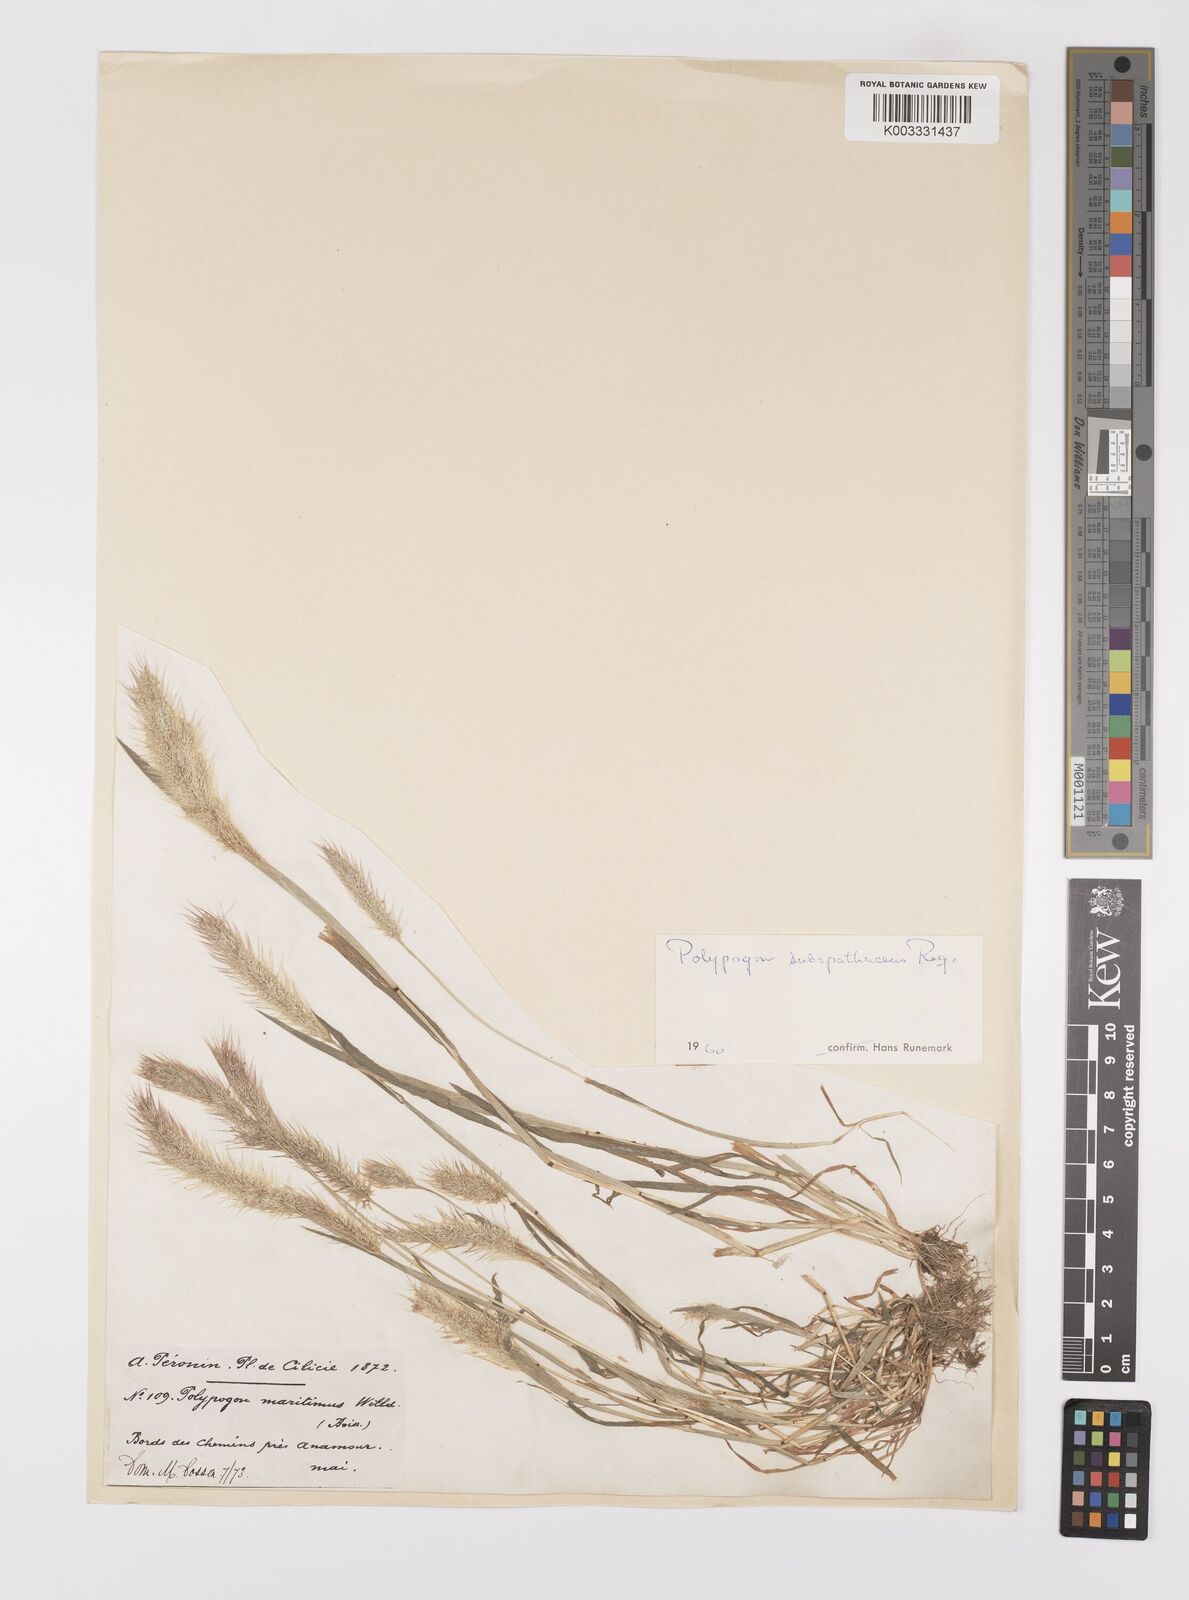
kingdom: Plantae
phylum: Tracheophyta
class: Liliopsida
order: Poales
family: Poaceae
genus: Polypogon
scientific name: Polypogon maritimus
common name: Mediterranean rabbitsfoot grass
